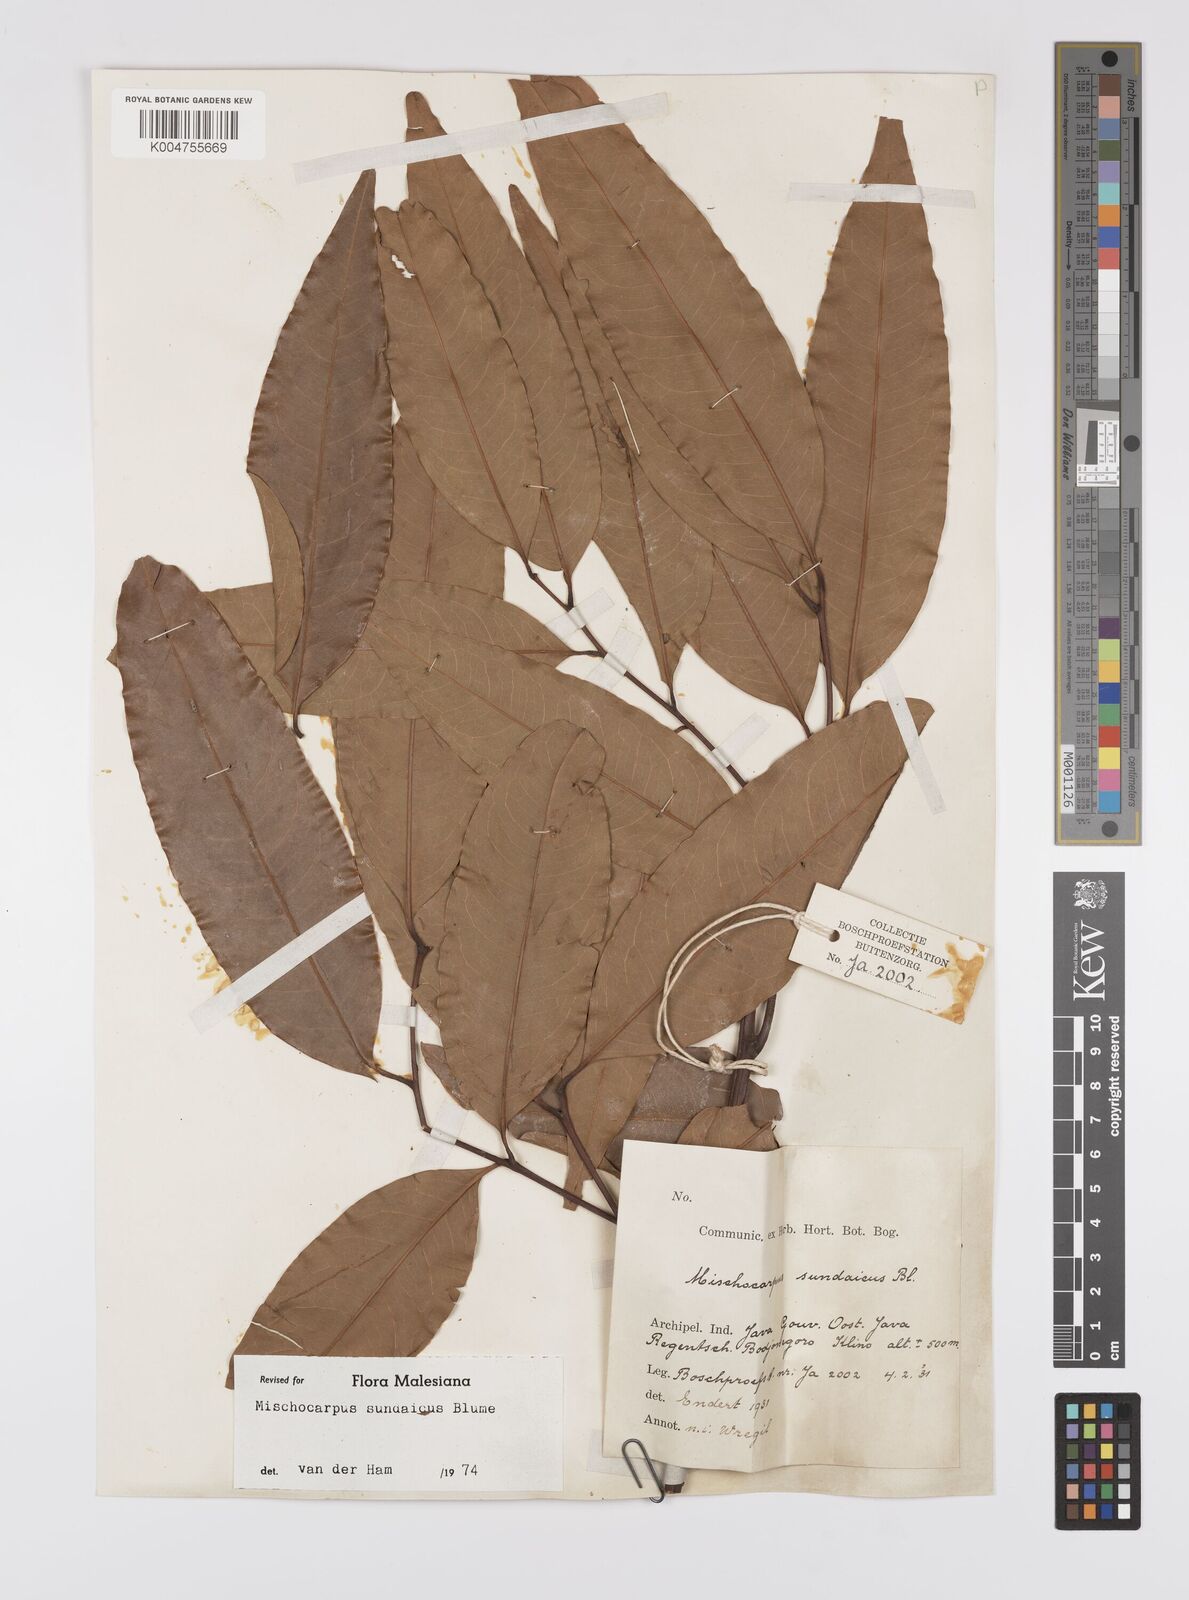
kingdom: Plantae
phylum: Tracheophyta
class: Magnoliopsida
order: Sapindales
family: Sapindaceae
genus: Mischocarpus
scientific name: Mischocarpus sundaicus
